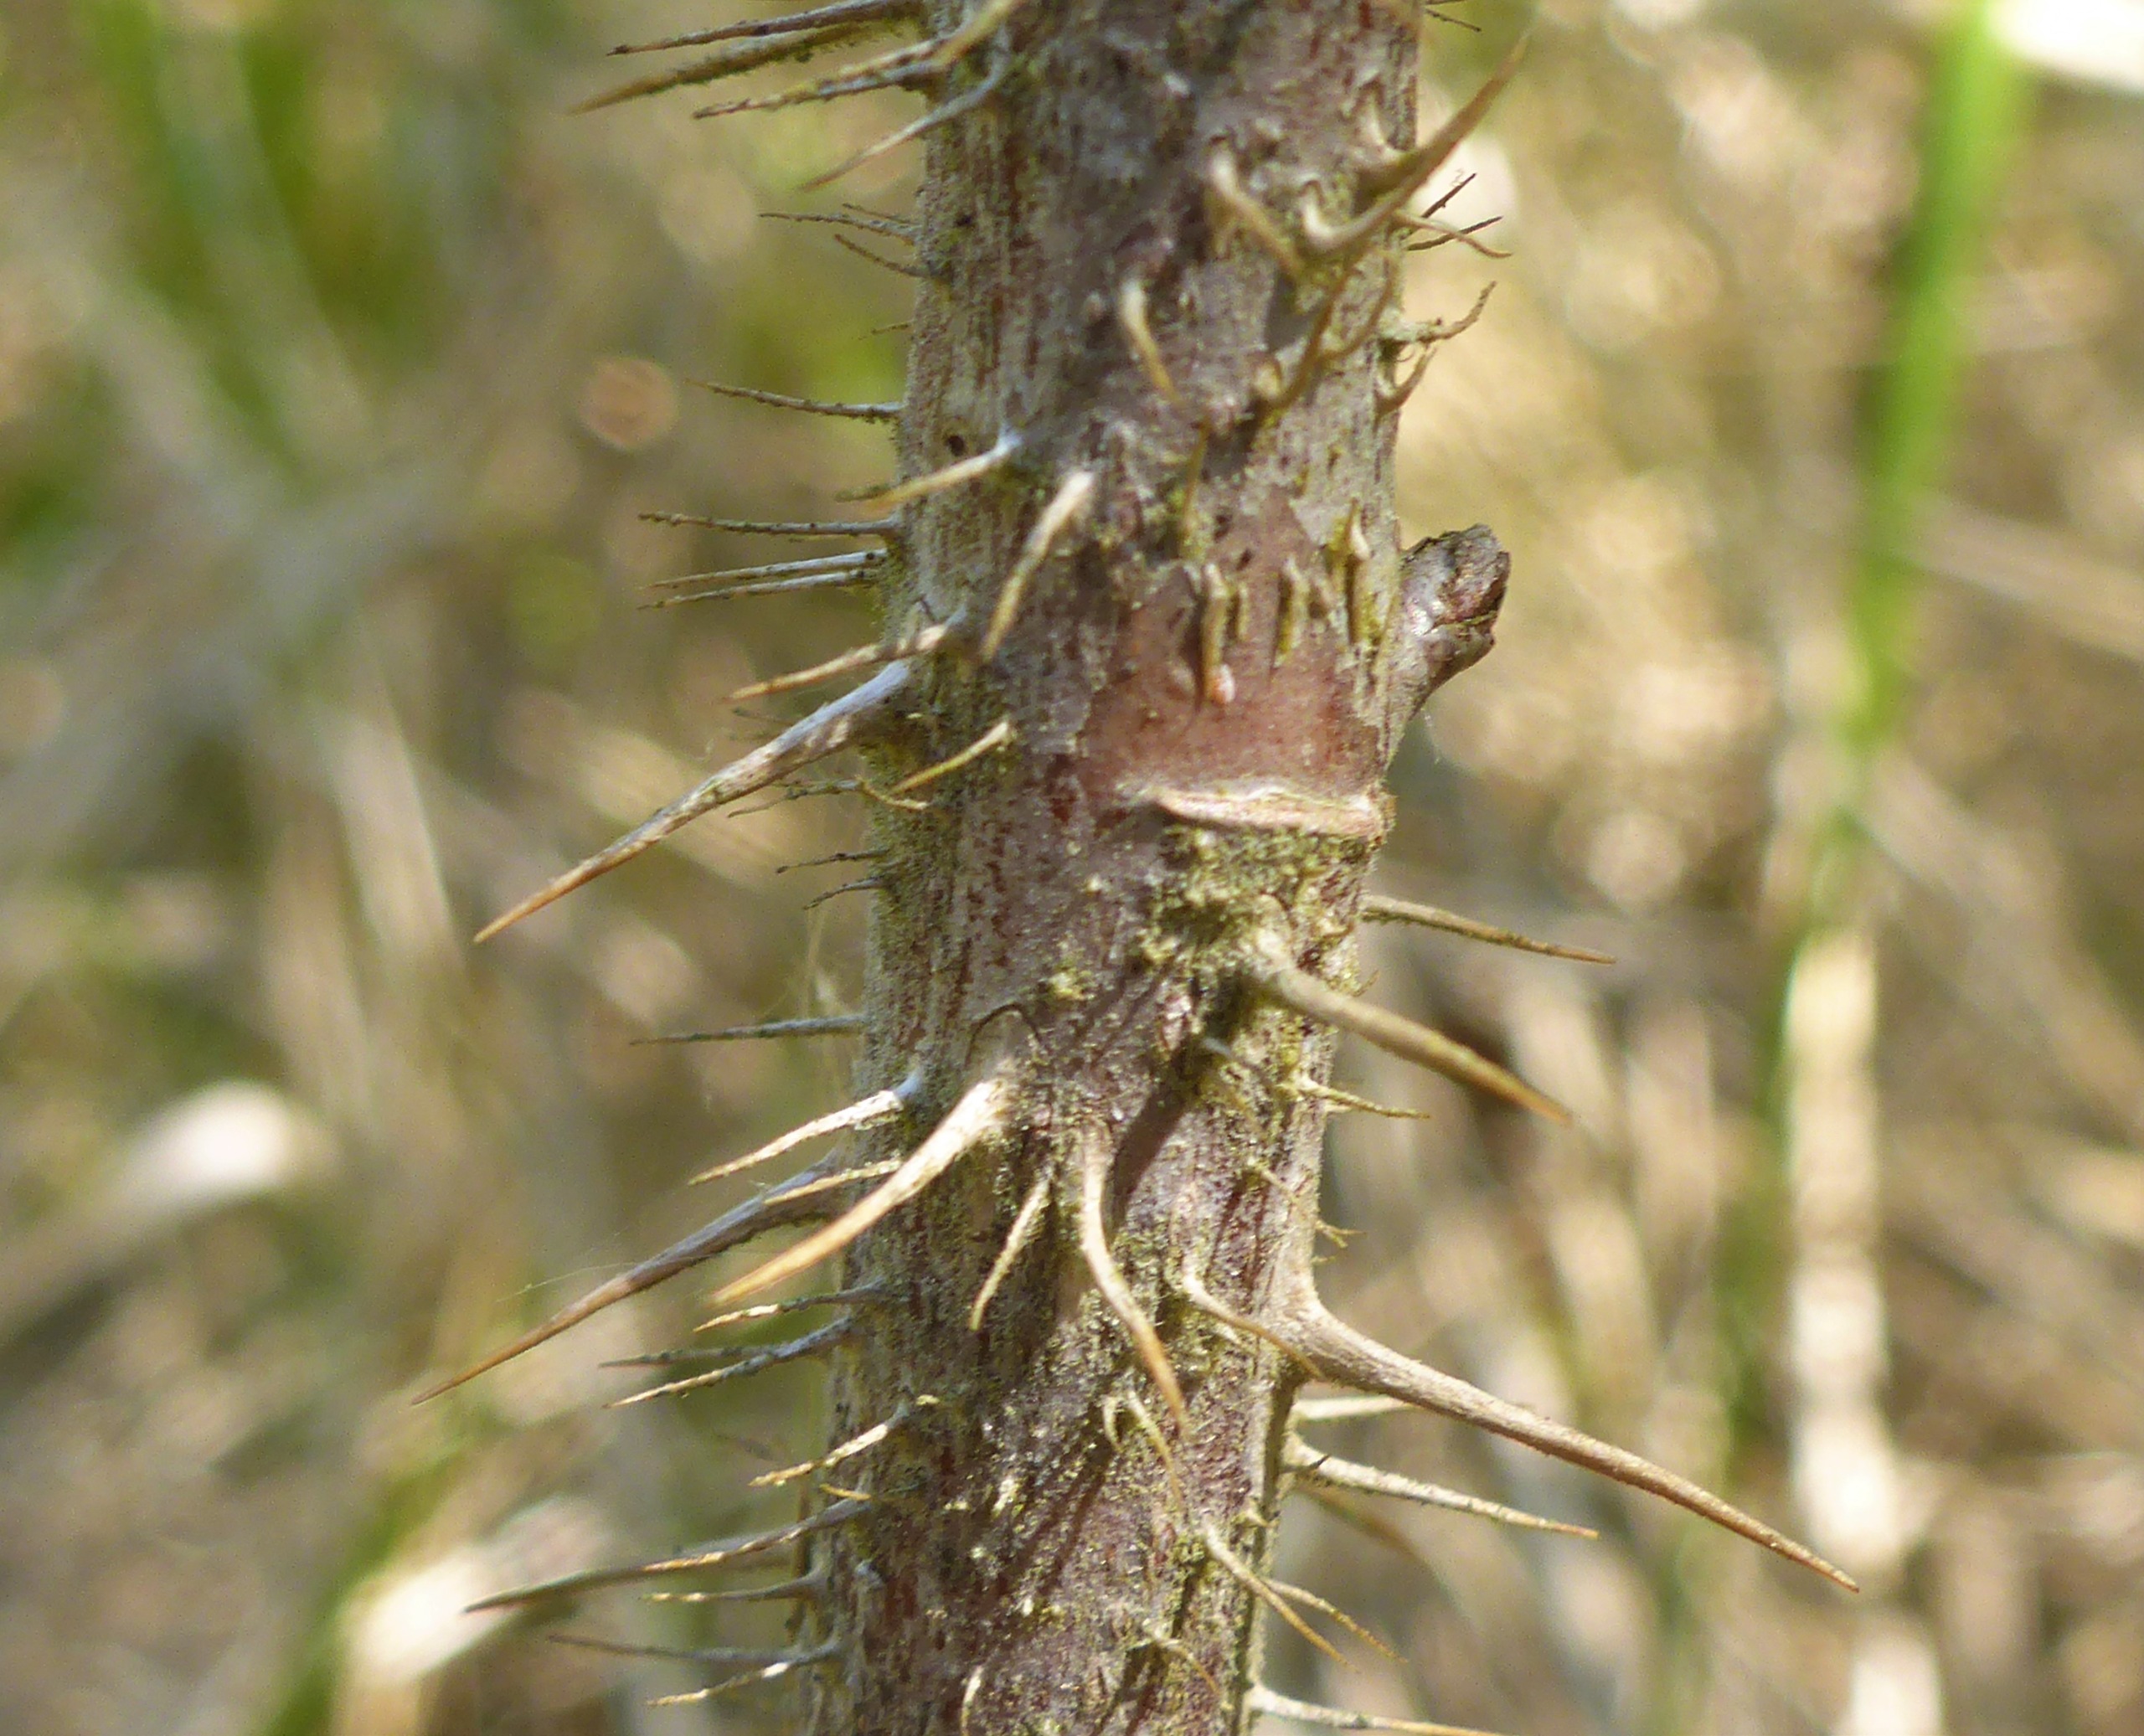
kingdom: Plantae
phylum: Tracheophyta
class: Magnoliopsida
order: Rosales
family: Rosaceae
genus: Rosa
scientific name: Rosa rugosa
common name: Rynket rose
